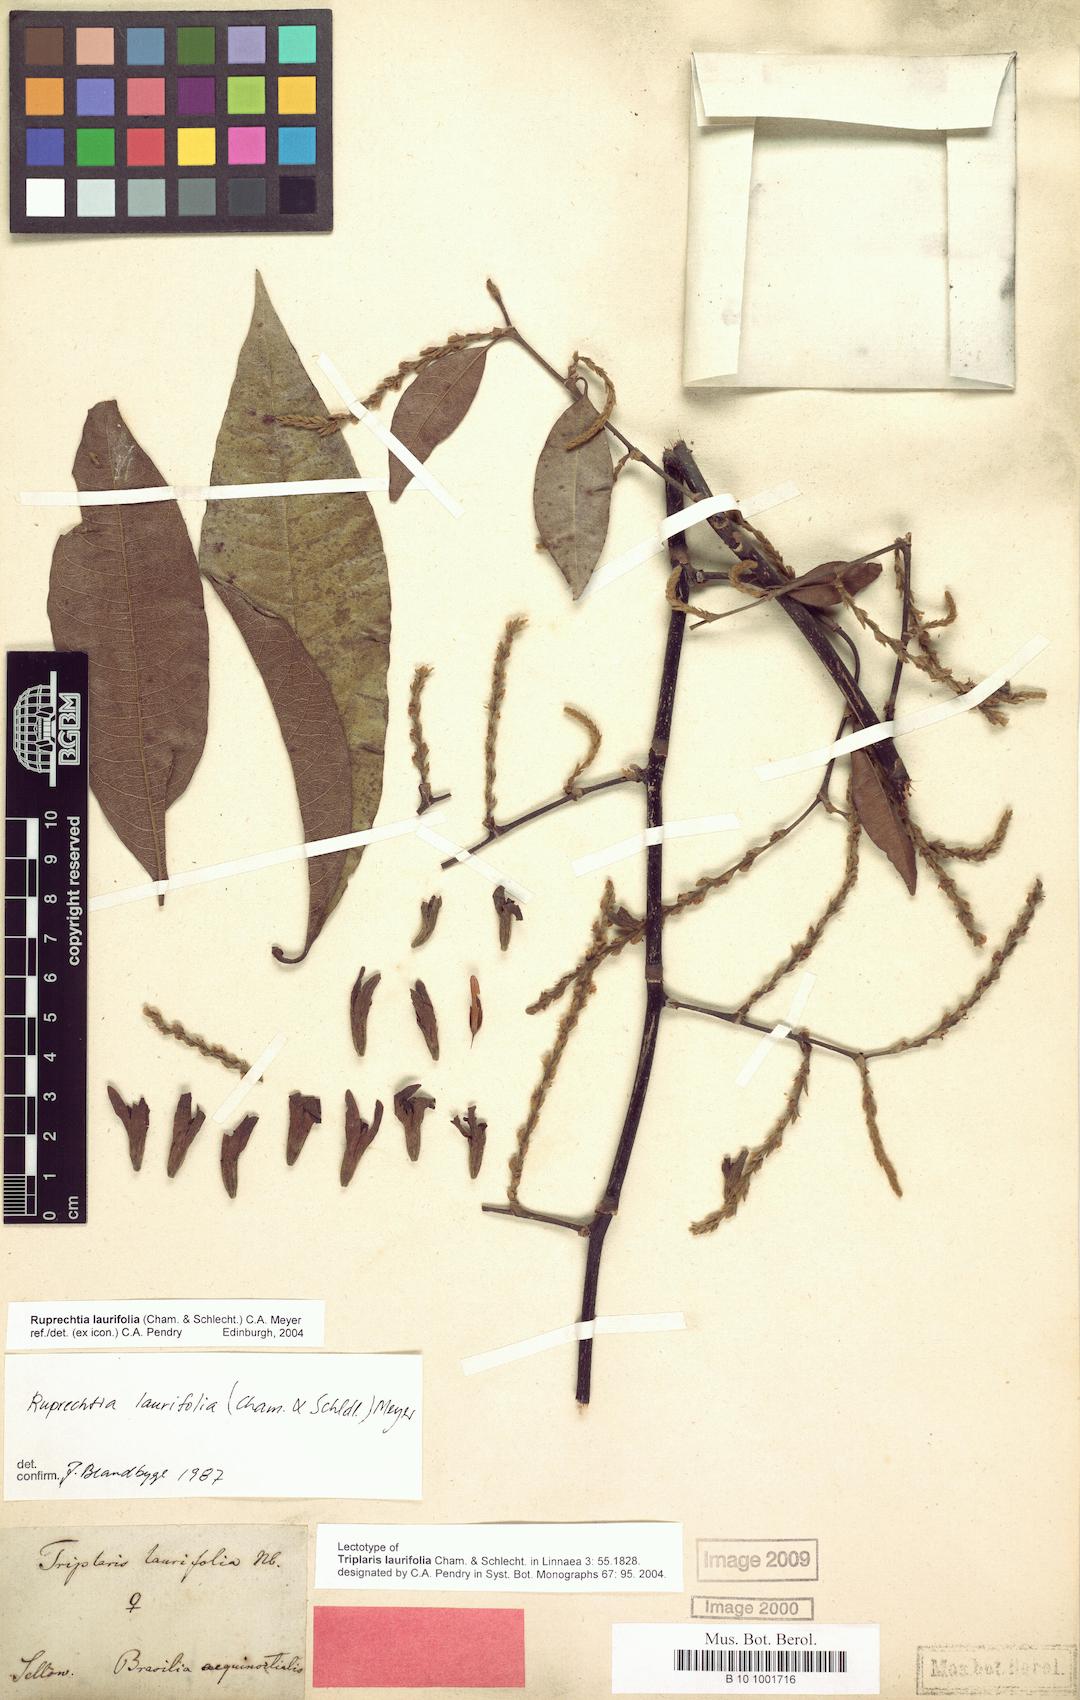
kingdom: Plantae
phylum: Tracheophyta
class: Magnoliopsida
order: Caryophyllales
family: Polygonaceae
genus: Magoniella
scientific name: Magoniella obidensis
